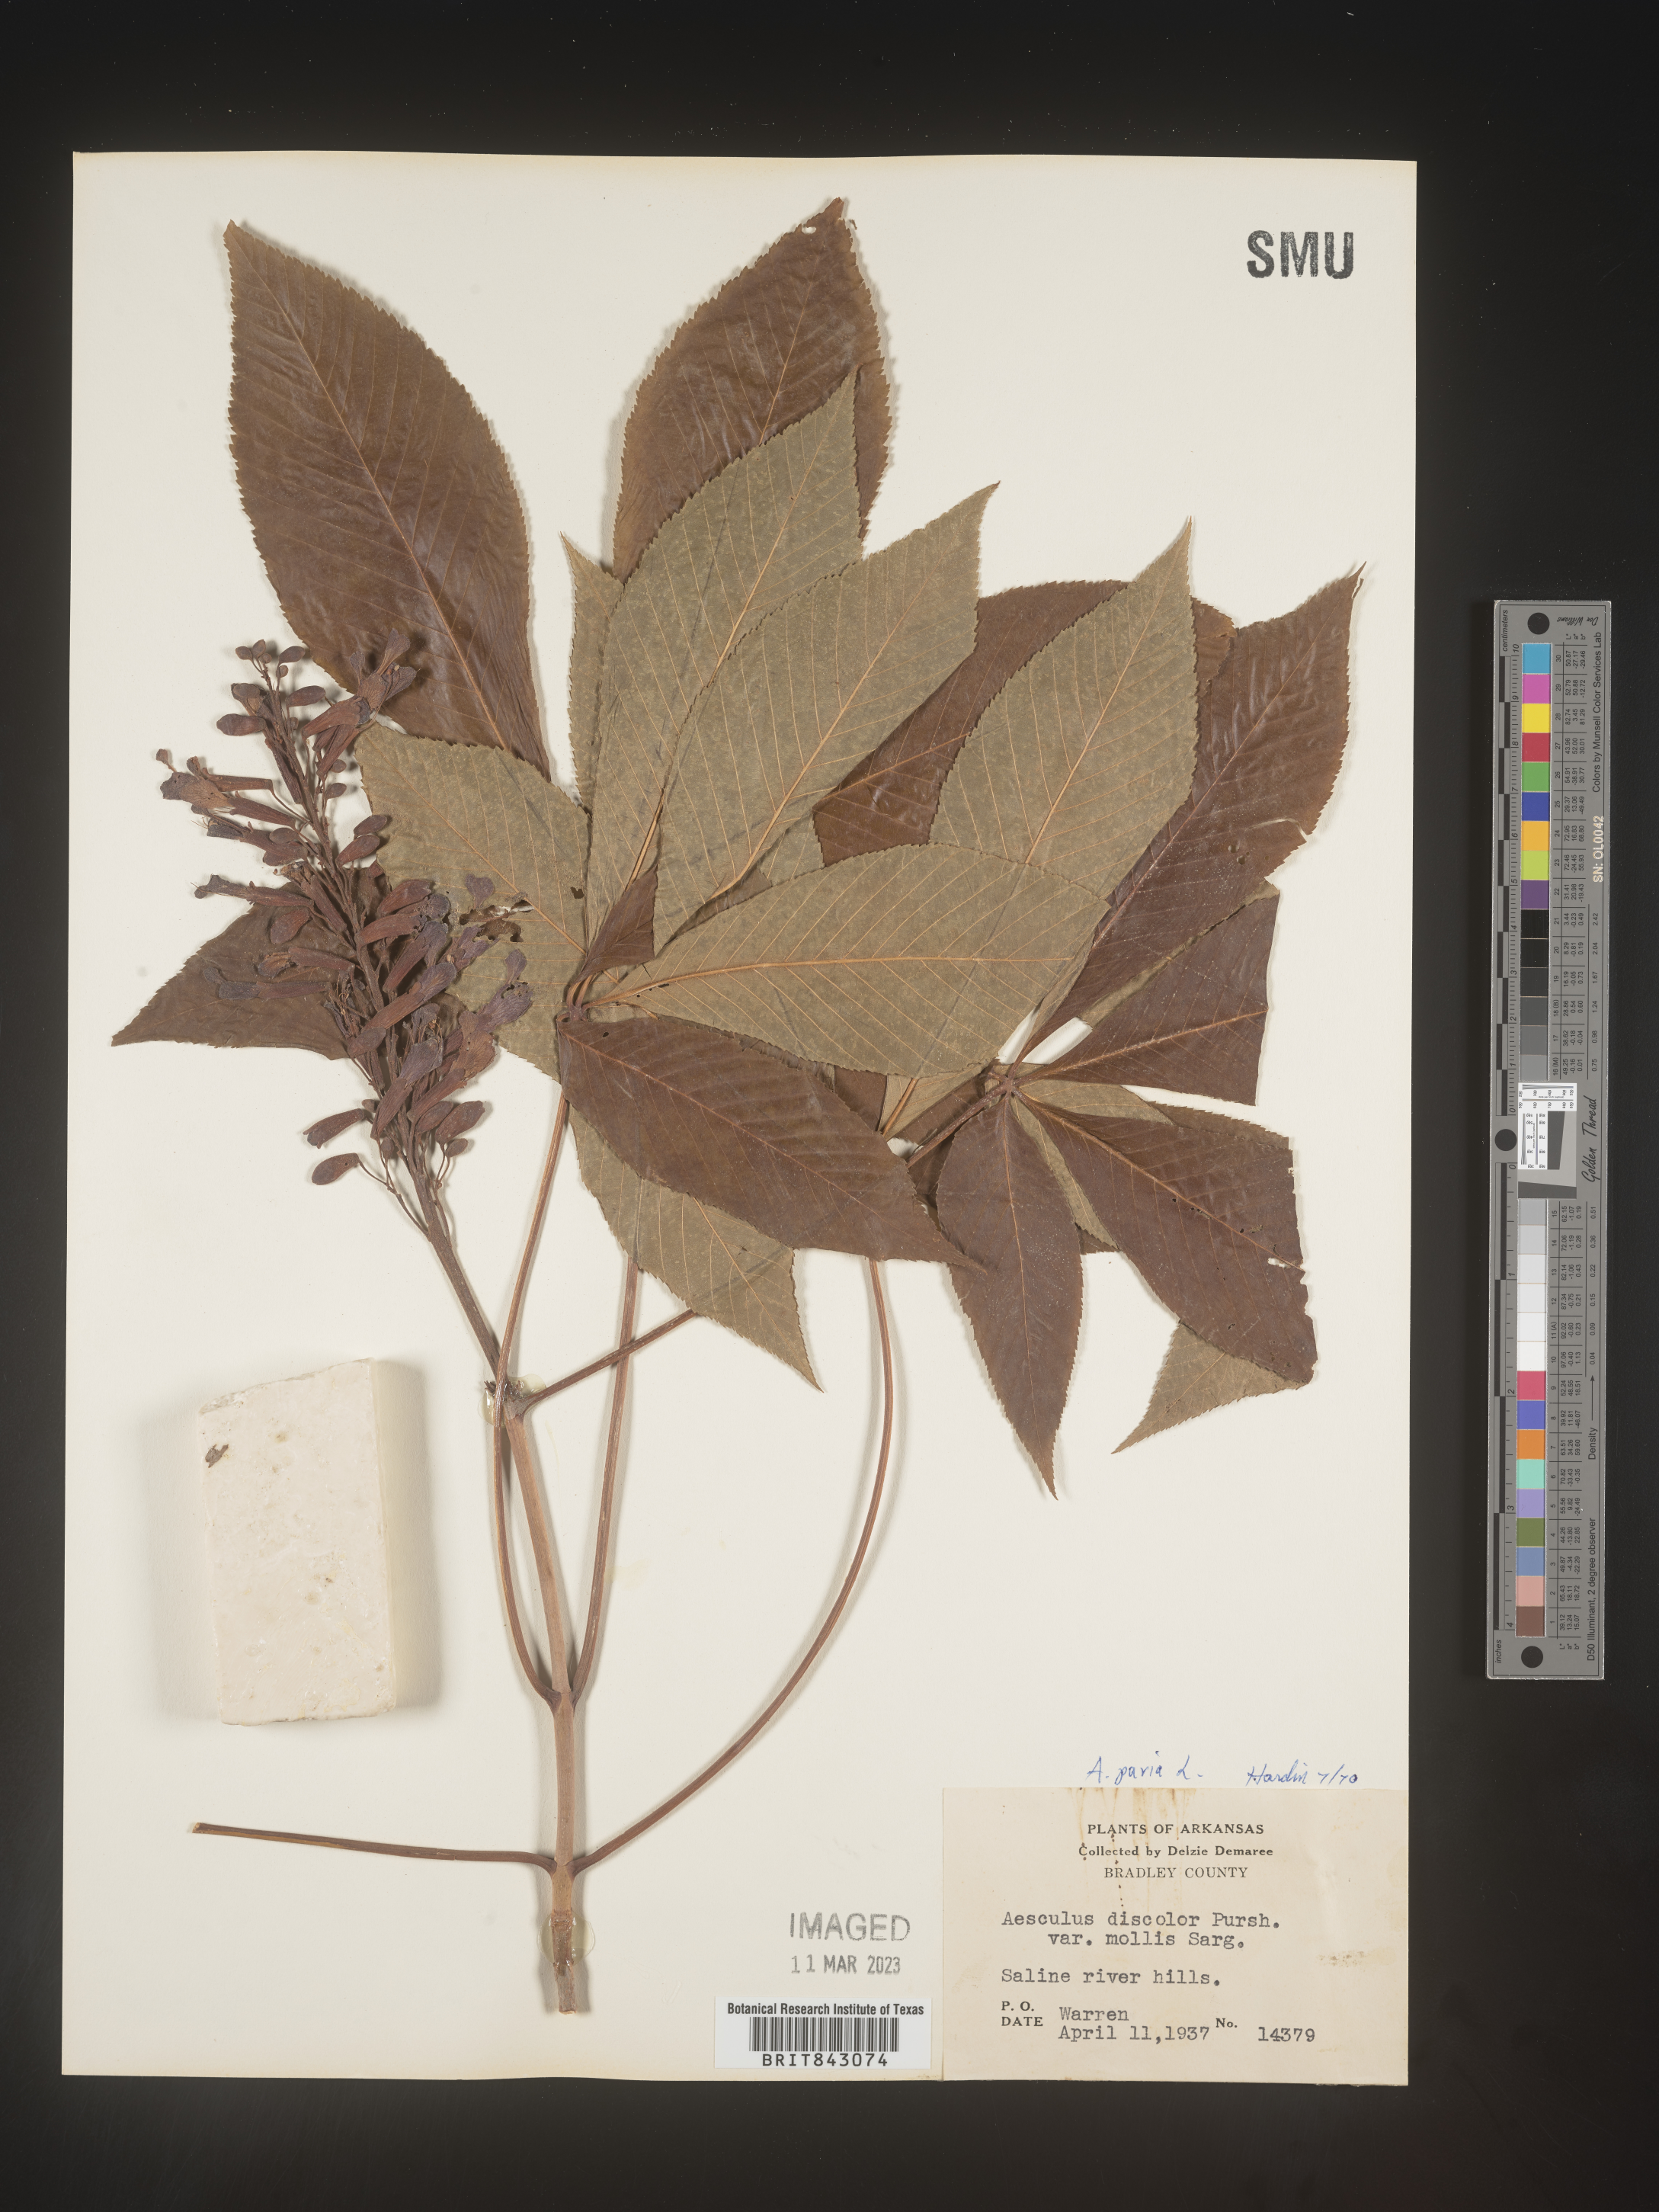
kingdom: Plantae
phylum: Tracheophyta
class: Magnoliopsida
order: Sapindales
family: Sapindaceae
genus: Aesculus
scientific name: Aesculus pavia
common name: Red buckeye
